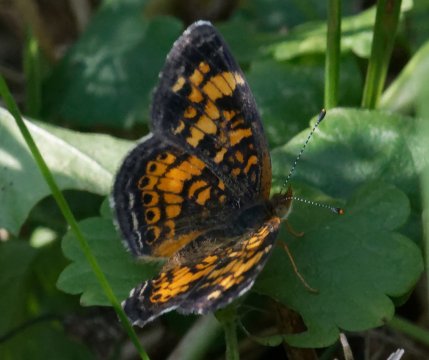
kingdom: Animalia
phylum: Arthropoda
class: Insecta
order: Lepidoptera
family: Nymphalidae
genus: Phyciodes
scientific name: Phyciodes tharos
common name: Pearl Crescent
